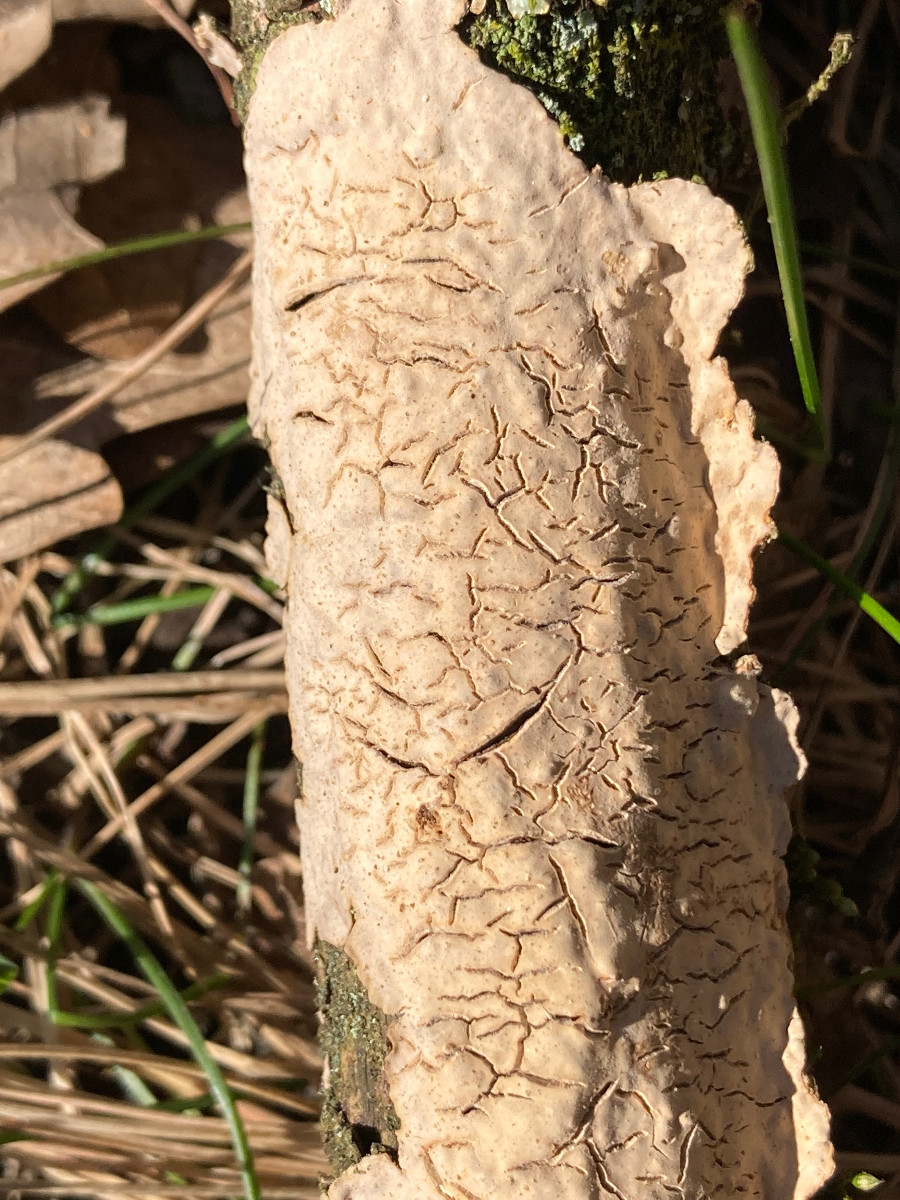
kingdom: Fungi
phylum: Basidiomycota
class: Agaricomycetes
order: Agaricales
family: Physalacriaceae
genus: Cylindrobasidium
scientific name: Cylindrobasidium evolvens
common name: sprækkehinde
